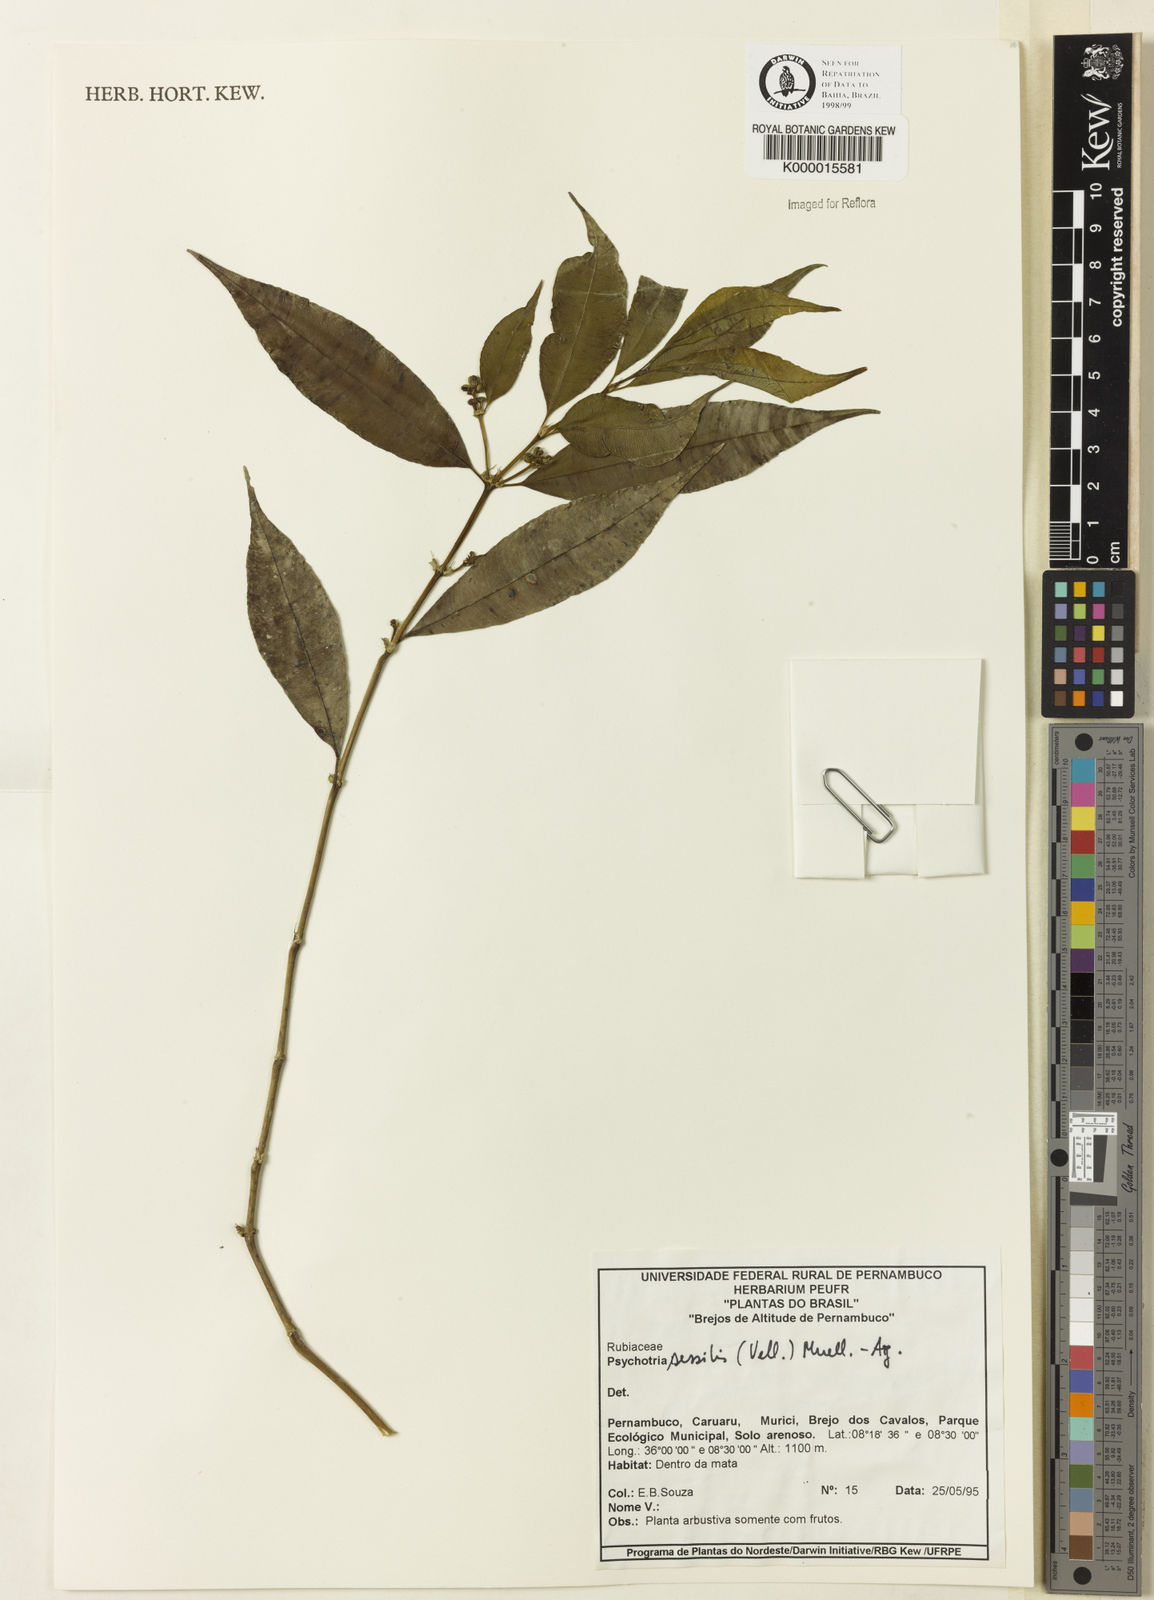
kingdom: Plantae
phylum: Tracheophyta
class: Magnoliopsida
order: Gentianales
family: Rubiaceae
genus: Psychotria
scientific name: Psychotria
